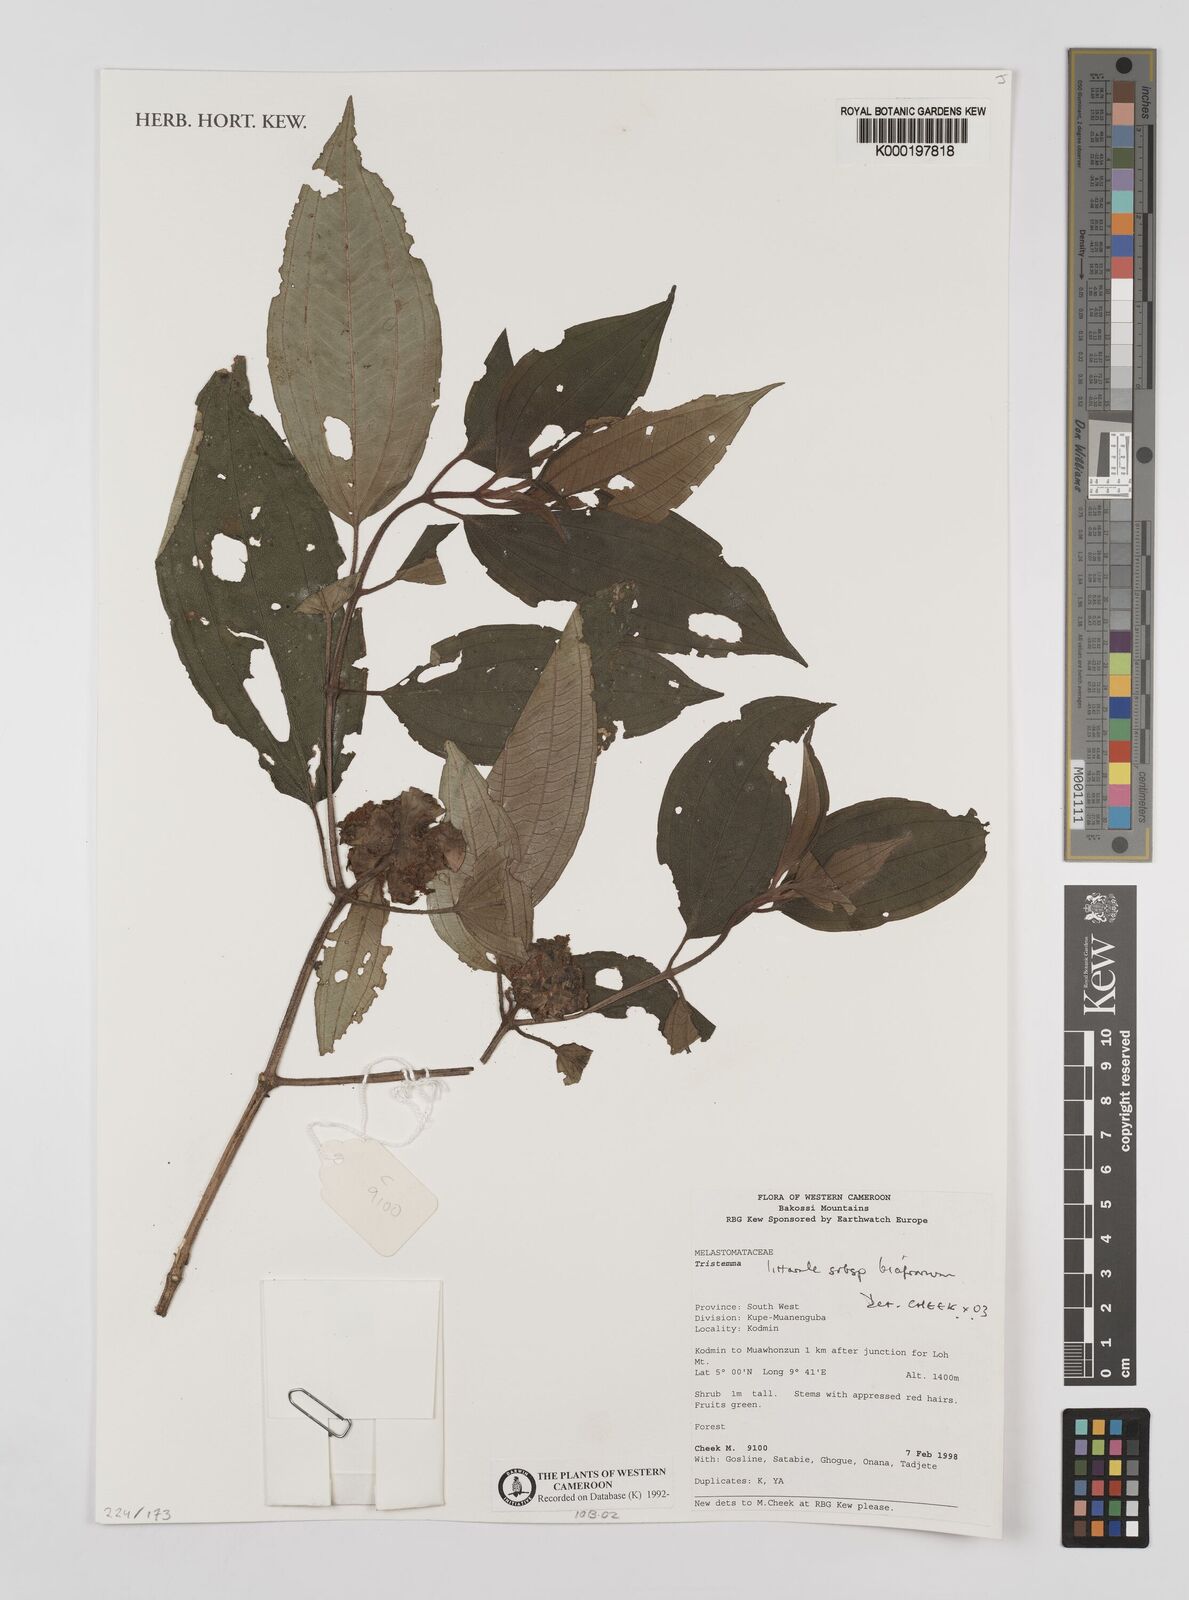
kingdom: Plantae
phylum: Tracheophyta
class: Magnoliopsida
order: Myrtales
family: Melastomataceae
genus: Tristemma
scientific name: Tristemma littorale
